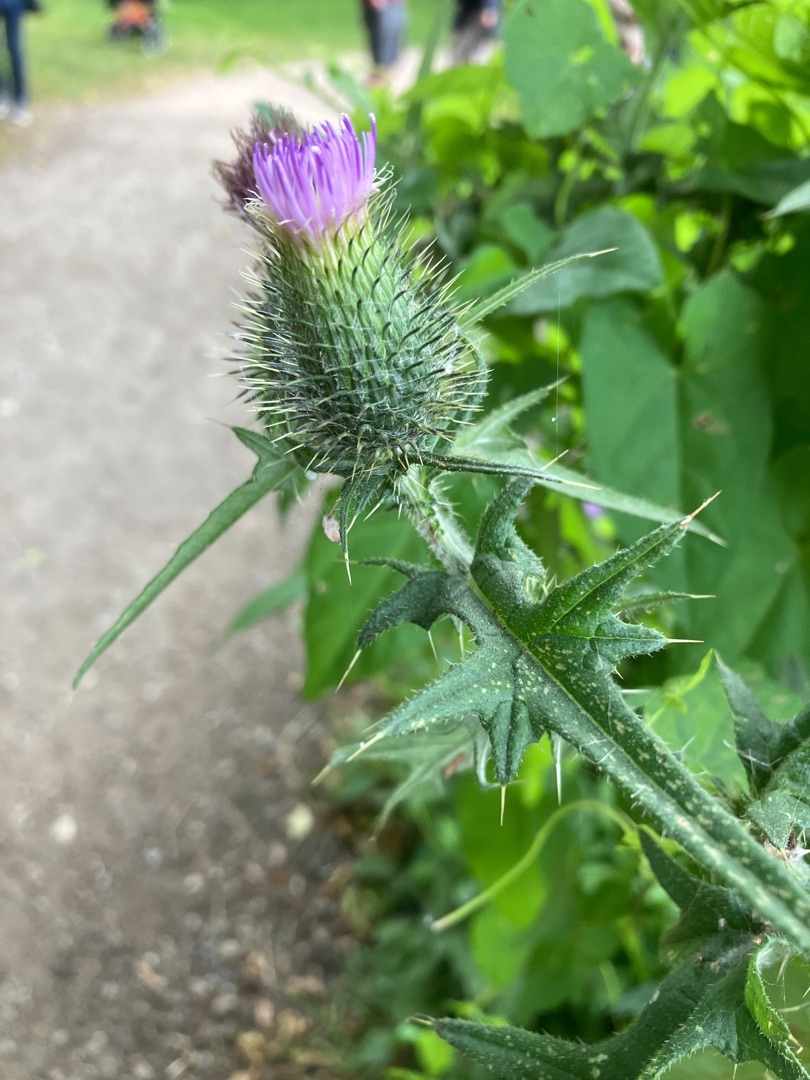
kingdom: Plantae
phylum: Tracheophyta
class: Magnoliopsida
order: Asterales
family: Asteraceae
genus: Cirsium
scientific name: Cirsium vulgare
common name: Horse-tidsel
